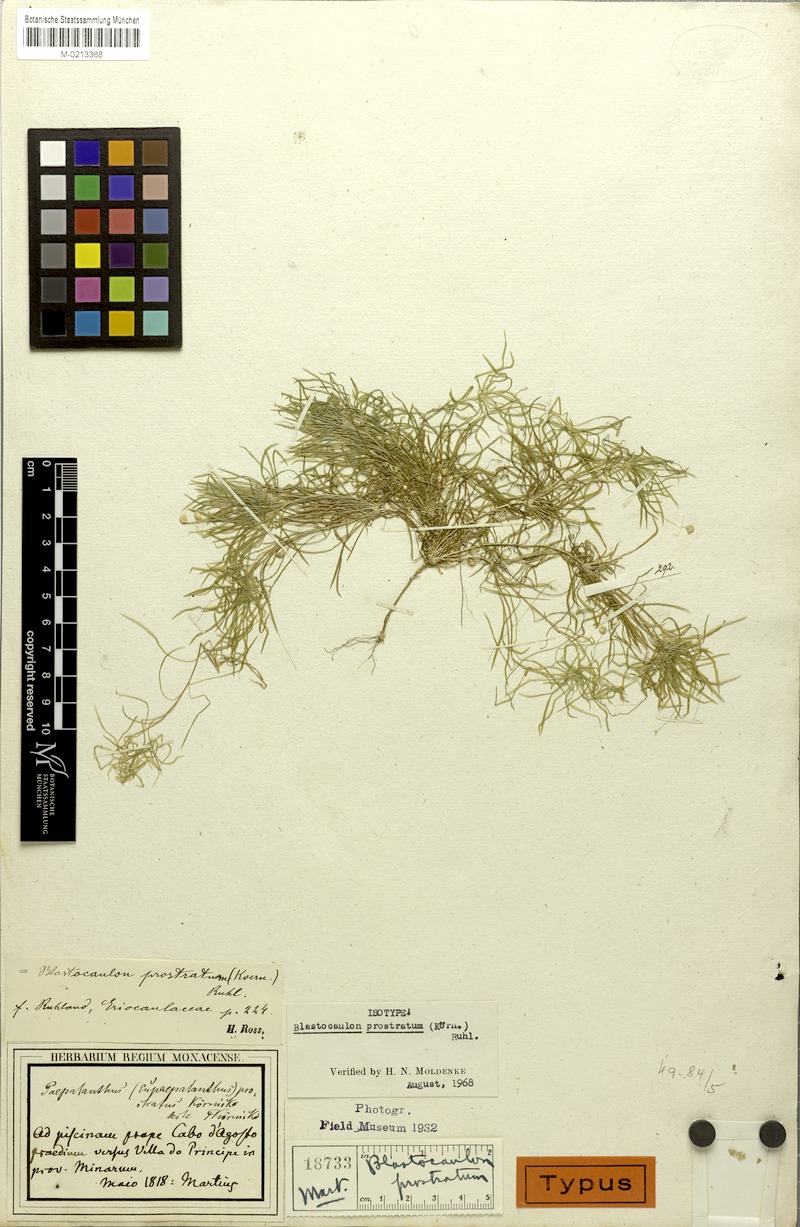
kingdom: Plantae
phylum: Tracheophyta
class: Liliopsida
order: Poales
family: Eriocaulaceae
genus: Paepalanthus
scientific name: Paepalanthus prostratus
